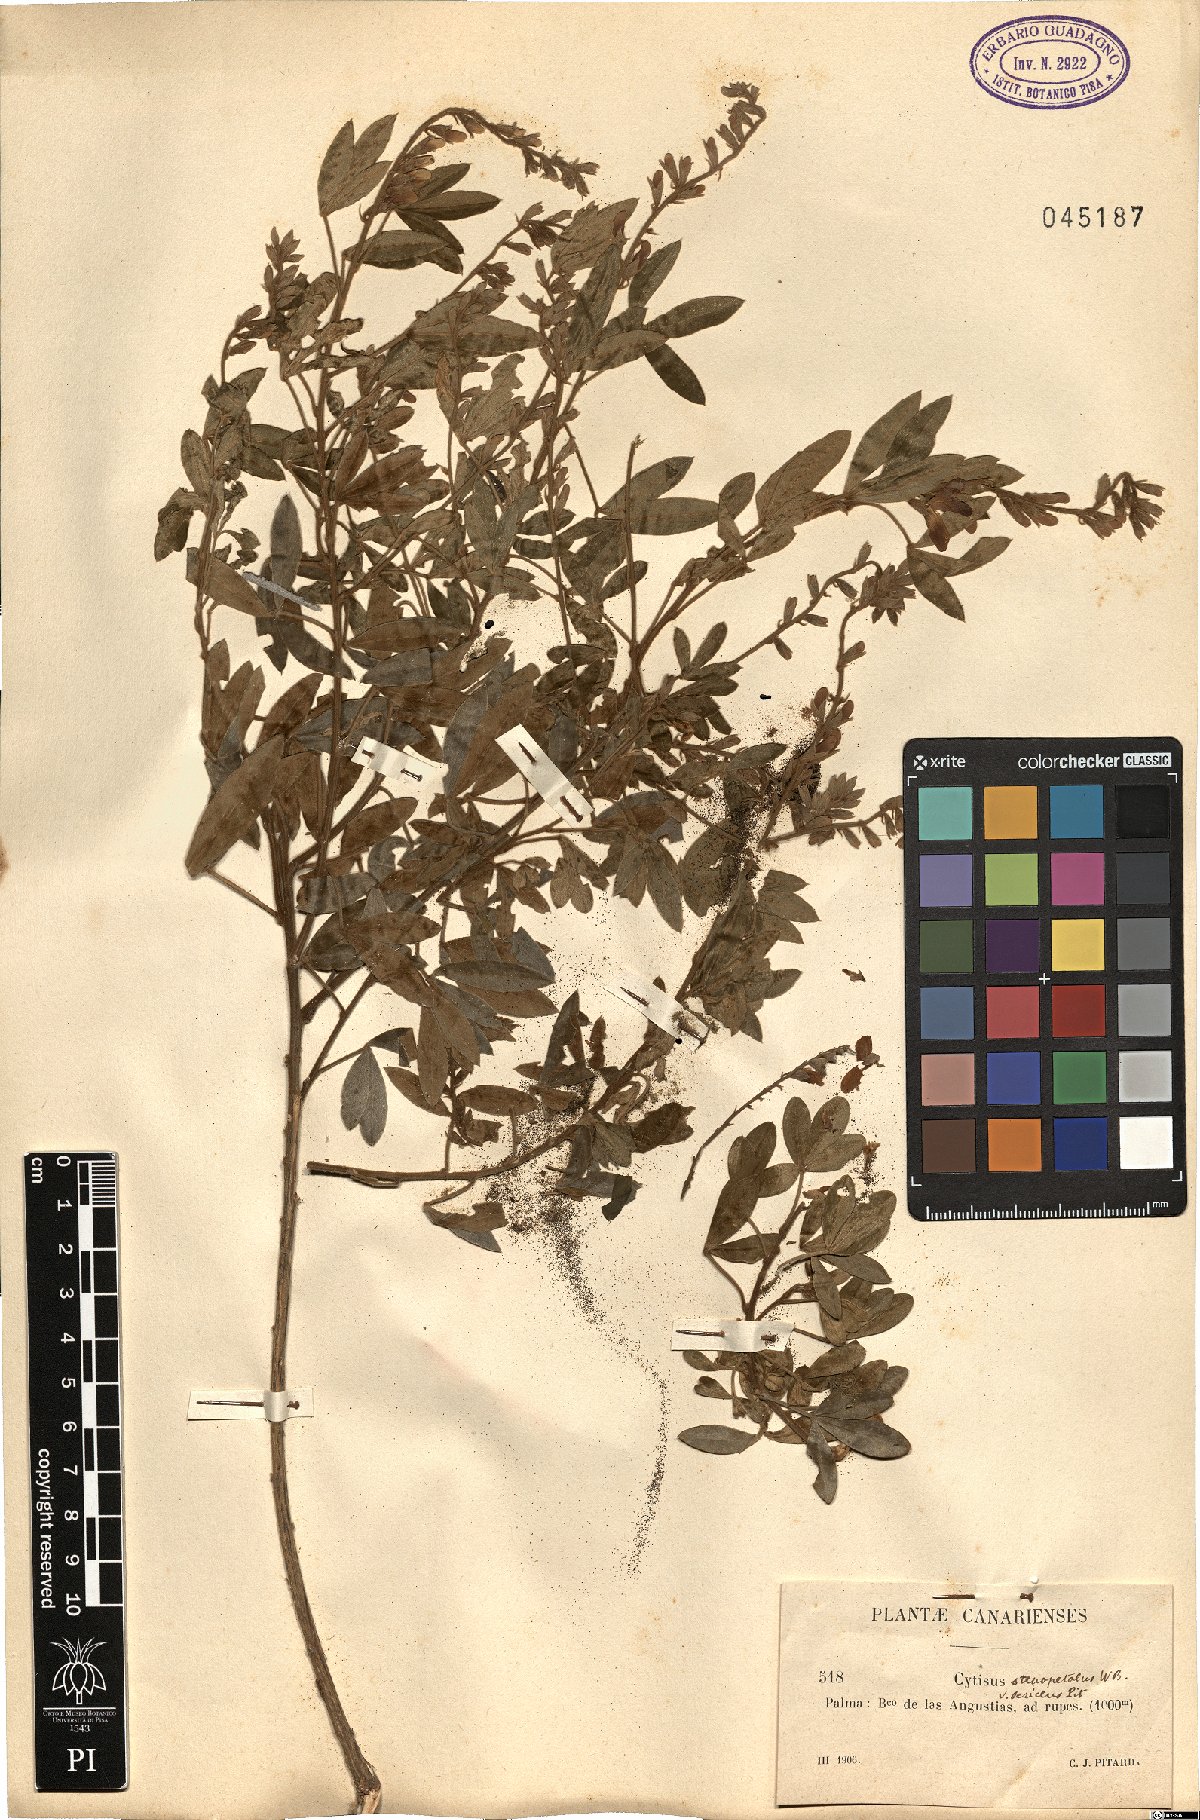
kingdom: Plantae
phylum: Tracheophyta
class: Magnoliopsida
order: Fabales
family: Fabaceae
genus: Cytisus
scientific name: Cytisus
